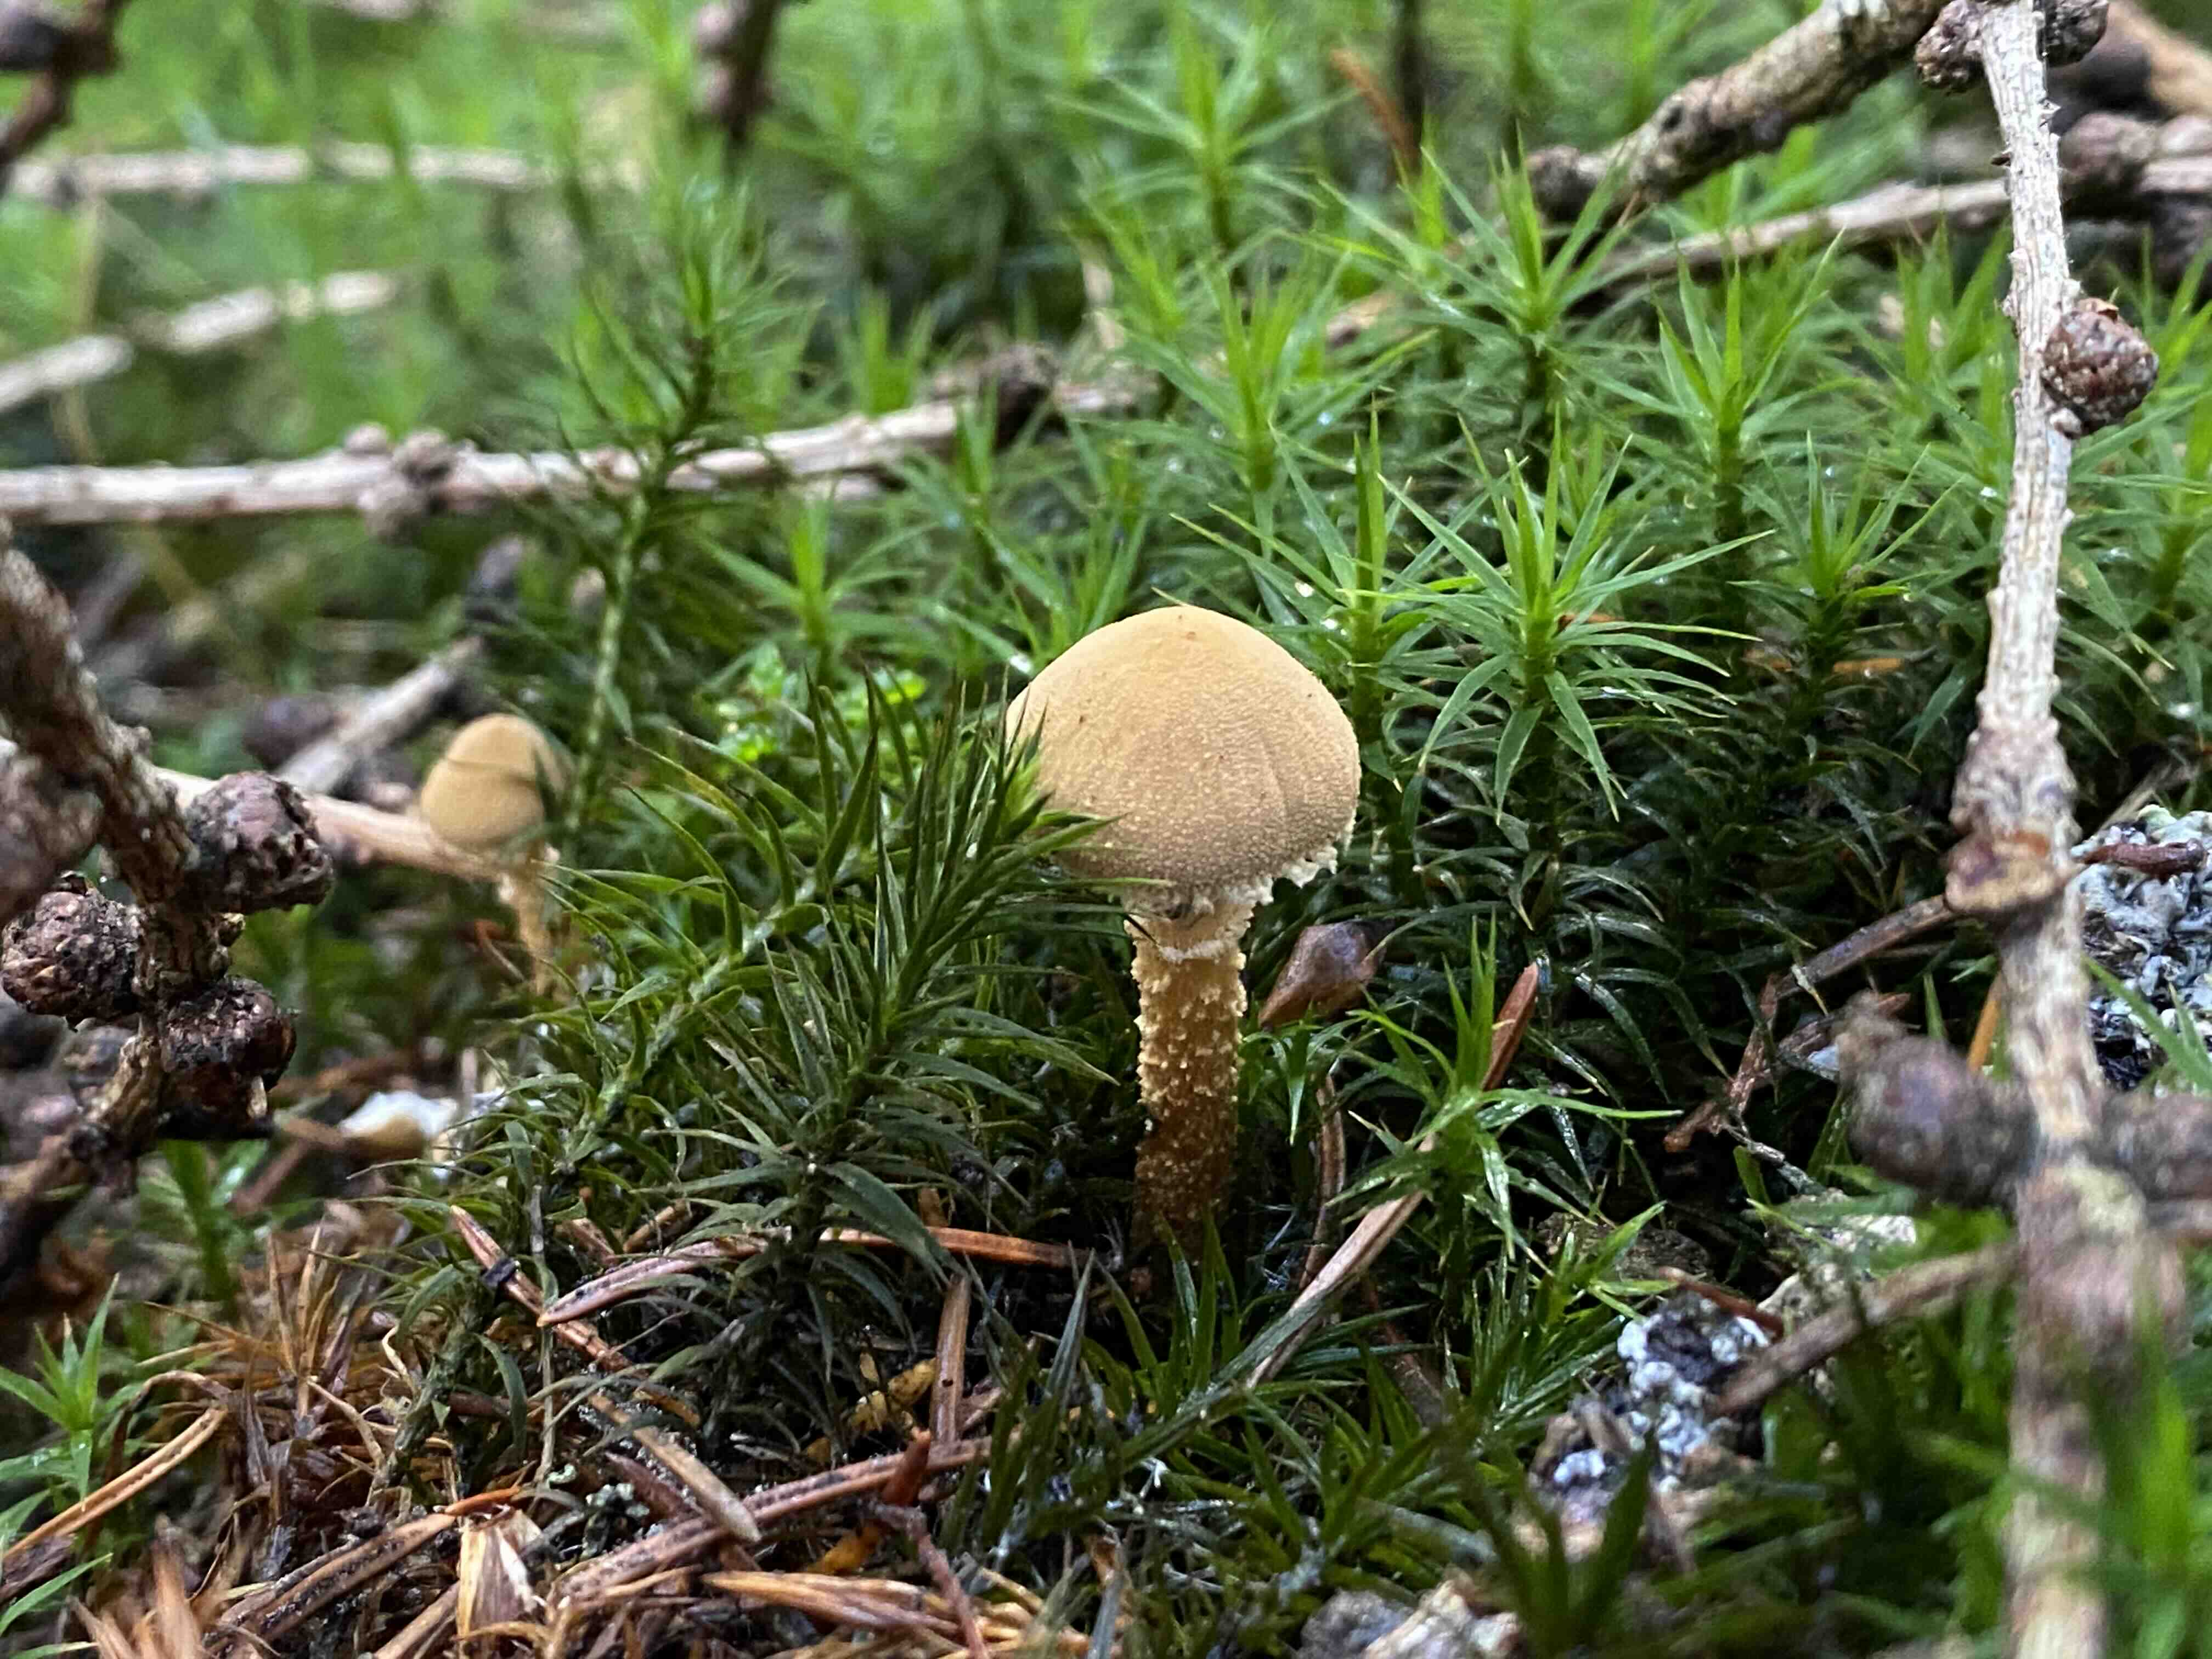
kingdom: Fungi
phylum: Basidiomycota
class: Agaricomycetes
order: Agaricales
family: Tricholomataceae
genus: Cystoderma
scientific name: Cystoderma amianthinum
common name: okkergul grynhat
